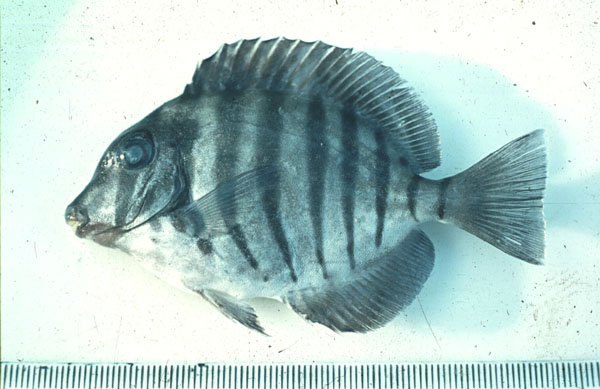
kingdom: Animalia
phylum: Chordata
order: Perciformes
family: Acanthuridae
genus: Acanthurus
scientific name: Acanthurus polyzona
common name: Black-barred surgeonfish
